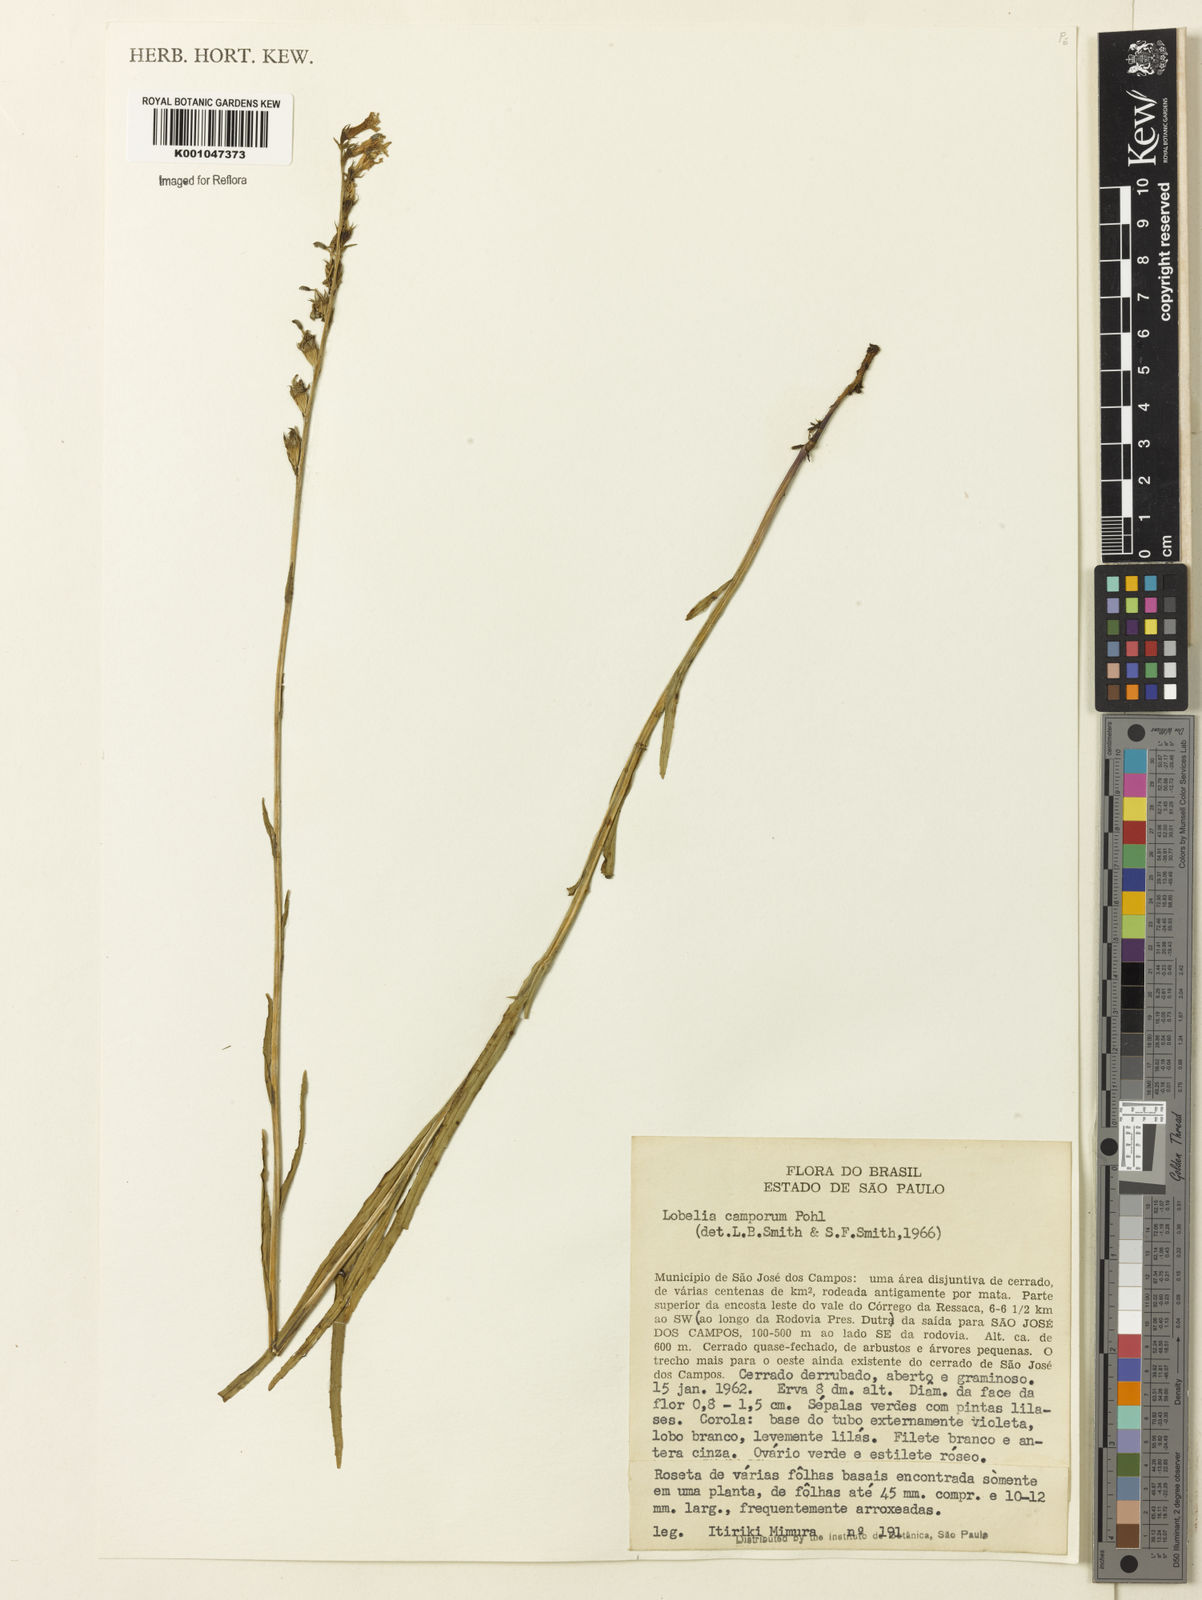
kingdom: Plantae
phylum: Tracheophyta
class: Magnoliopsida
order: Asterales
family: Campanulaceae
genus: Lobelia
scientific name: Lobelia camporum
